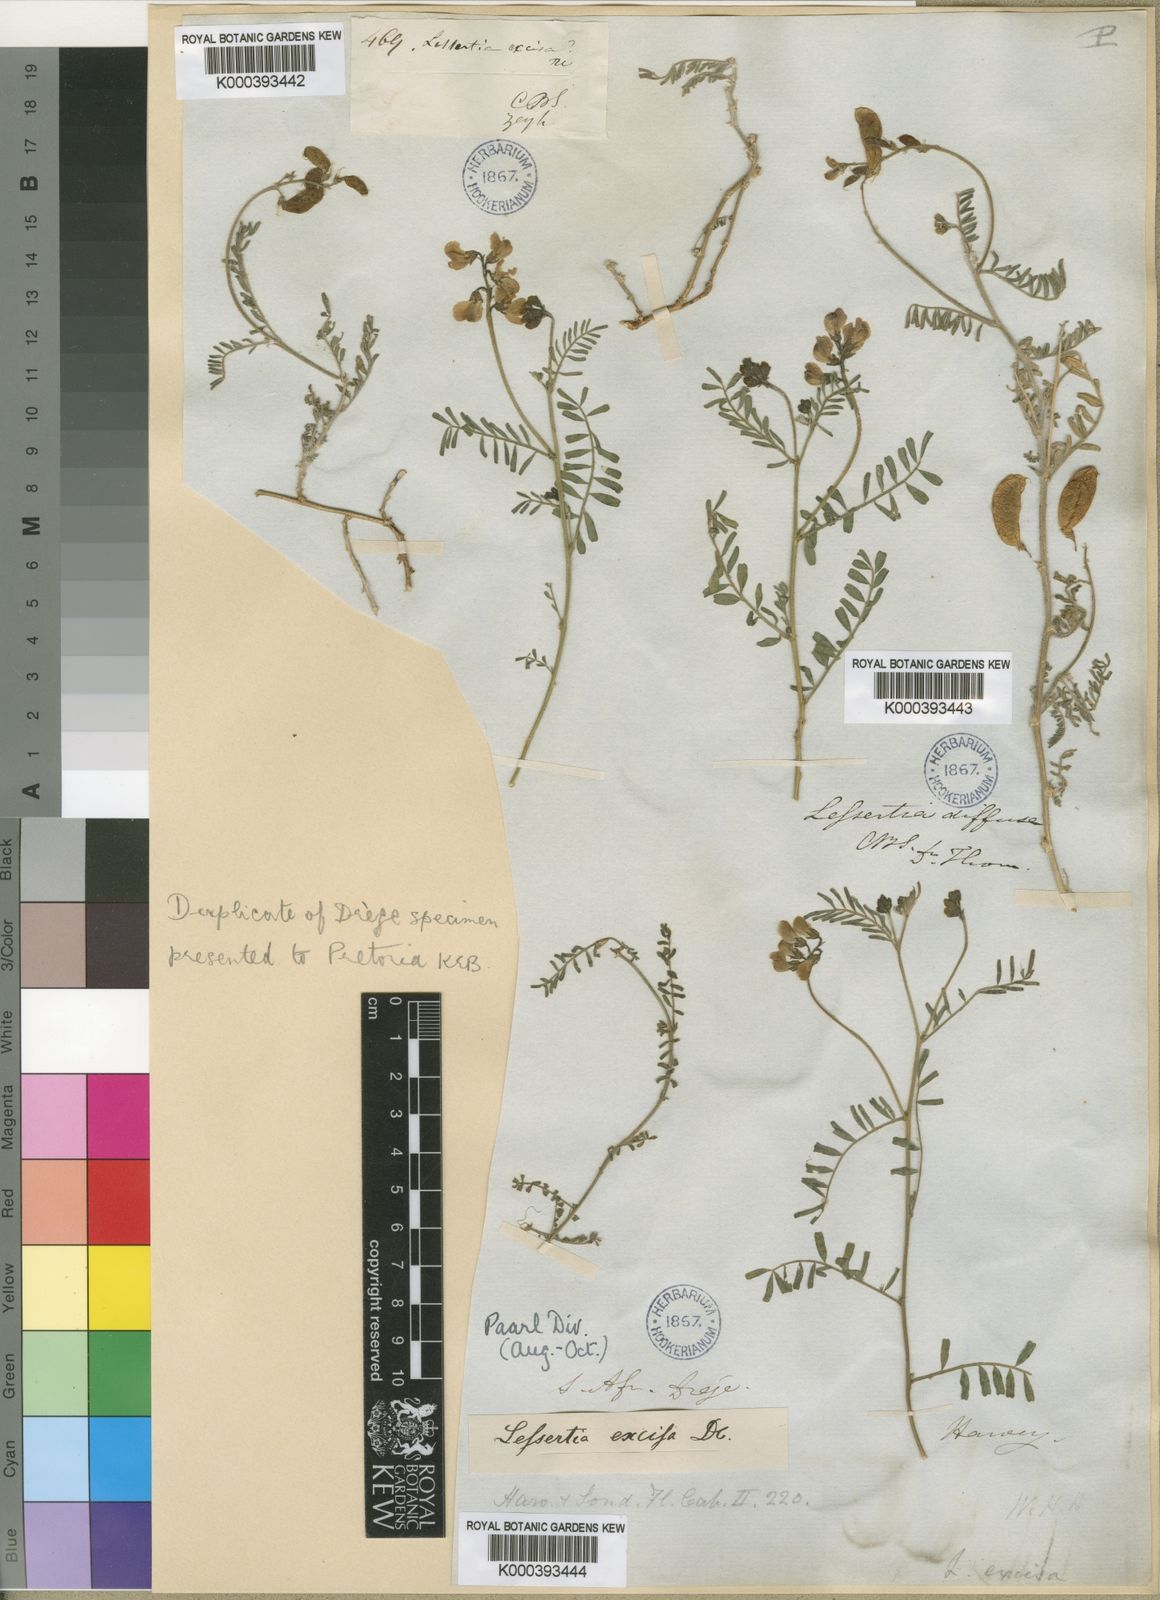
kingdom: Plantae
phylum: Tracheophyta
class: Magnoliopsida
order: Fabales
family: Fabaceae
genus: Lessertia
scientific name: Lessertia excisa
